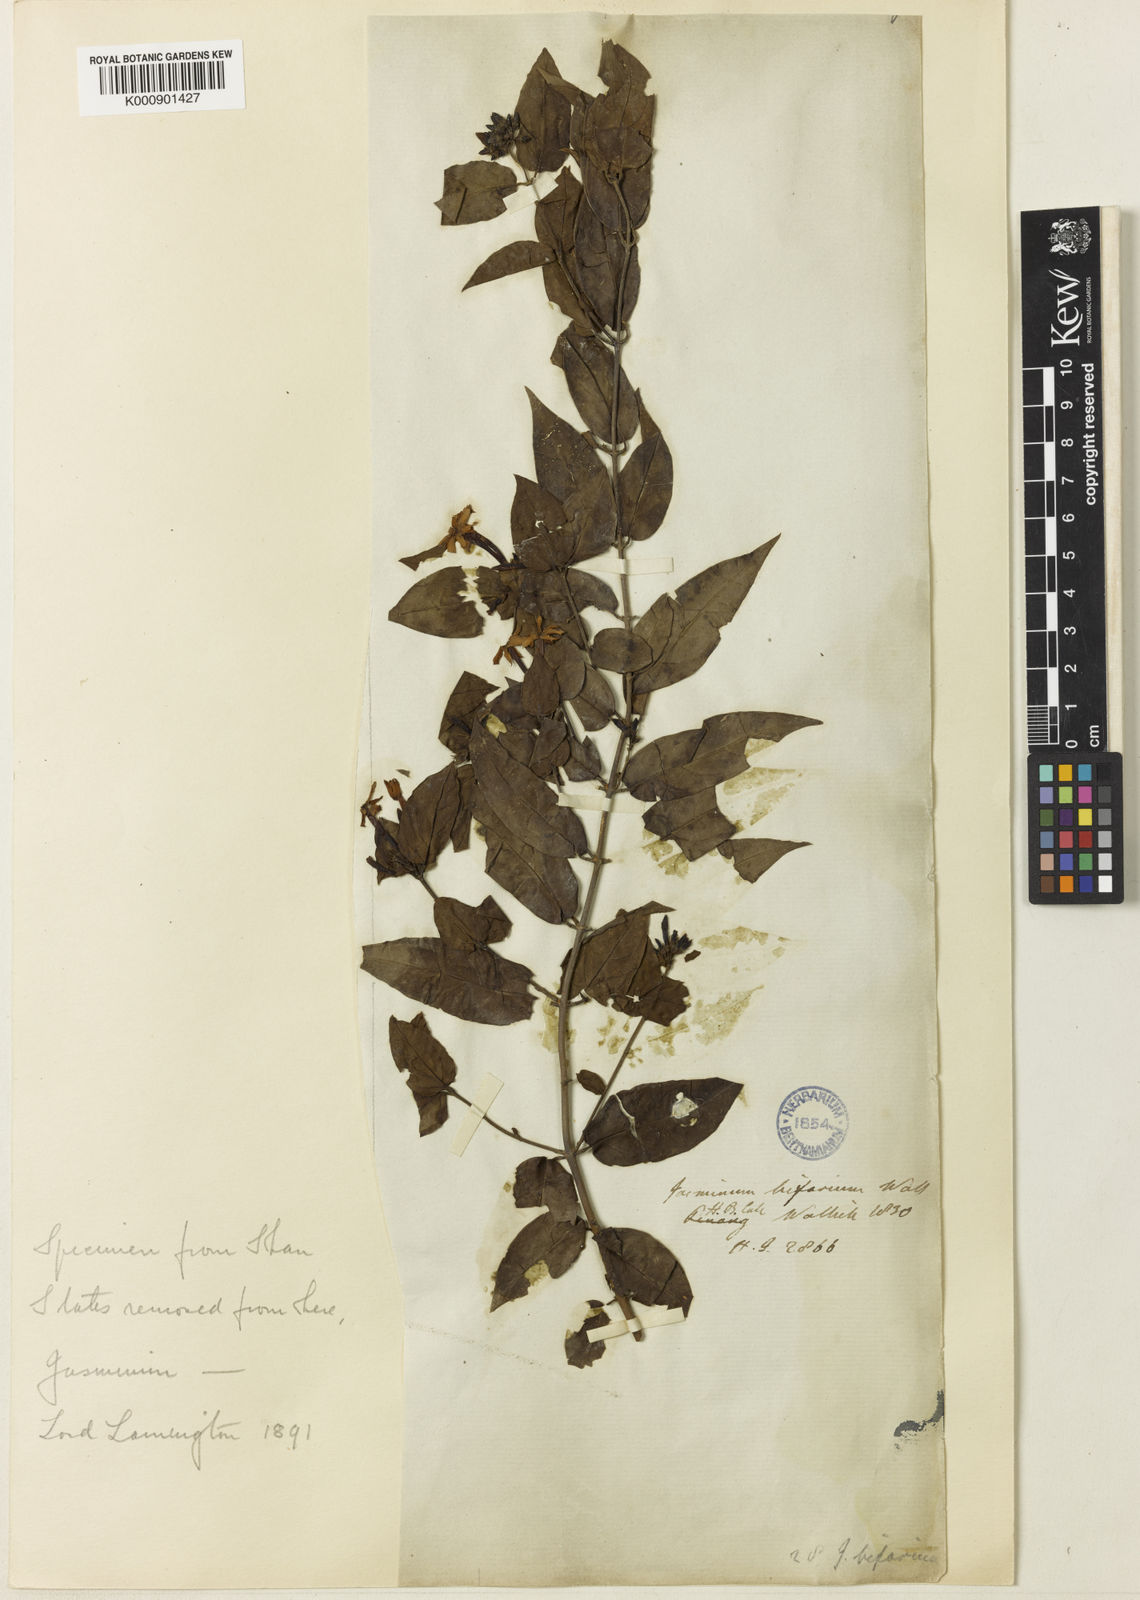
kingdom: Plantae
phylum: Tracheophyta
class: Magnoliopsida
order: Lamiales
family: Oleaceae
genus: Jasminum
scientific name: Jasminum elongatum
